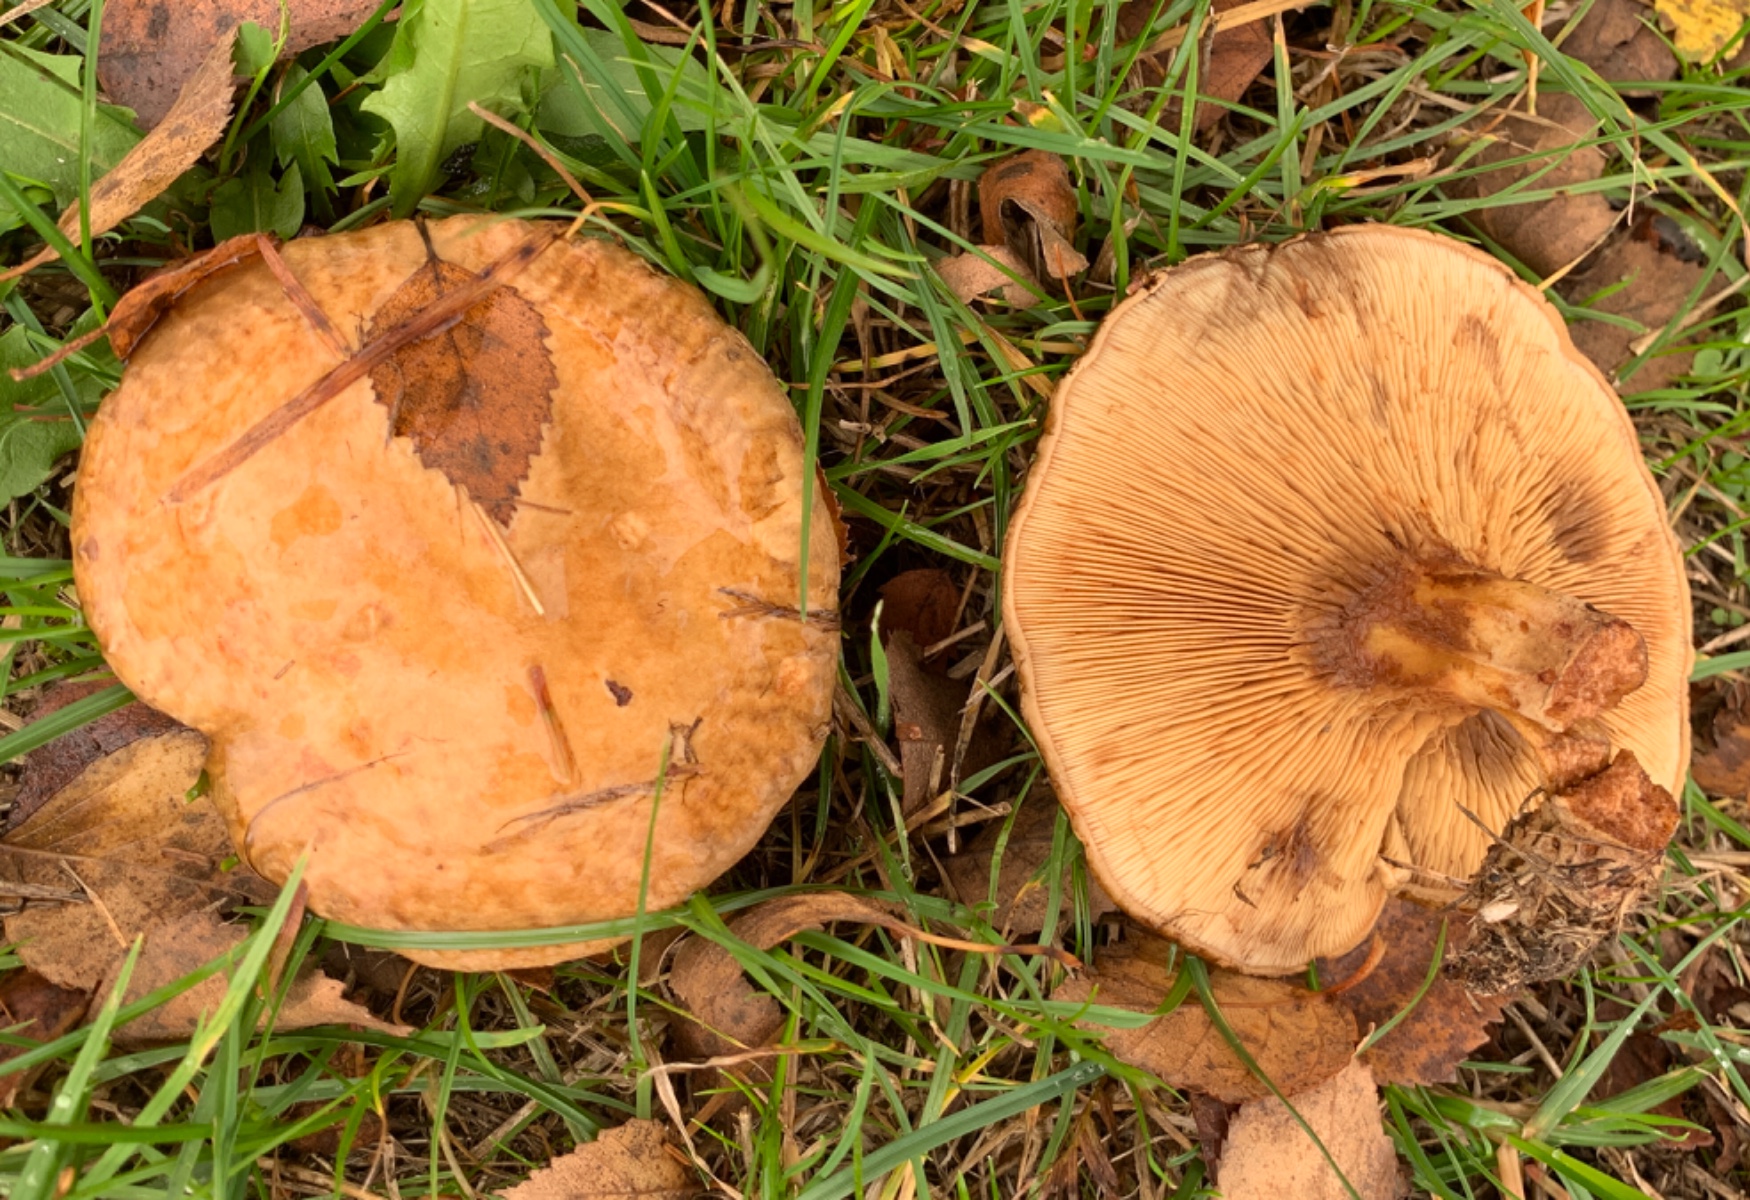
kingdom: Fungi
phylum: Basidiomycota
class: Agaricomycetes
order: Boletales
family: Paxillaceae
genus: Paxillus
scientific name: Paxillus involutus
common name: almindelig netbladhat
